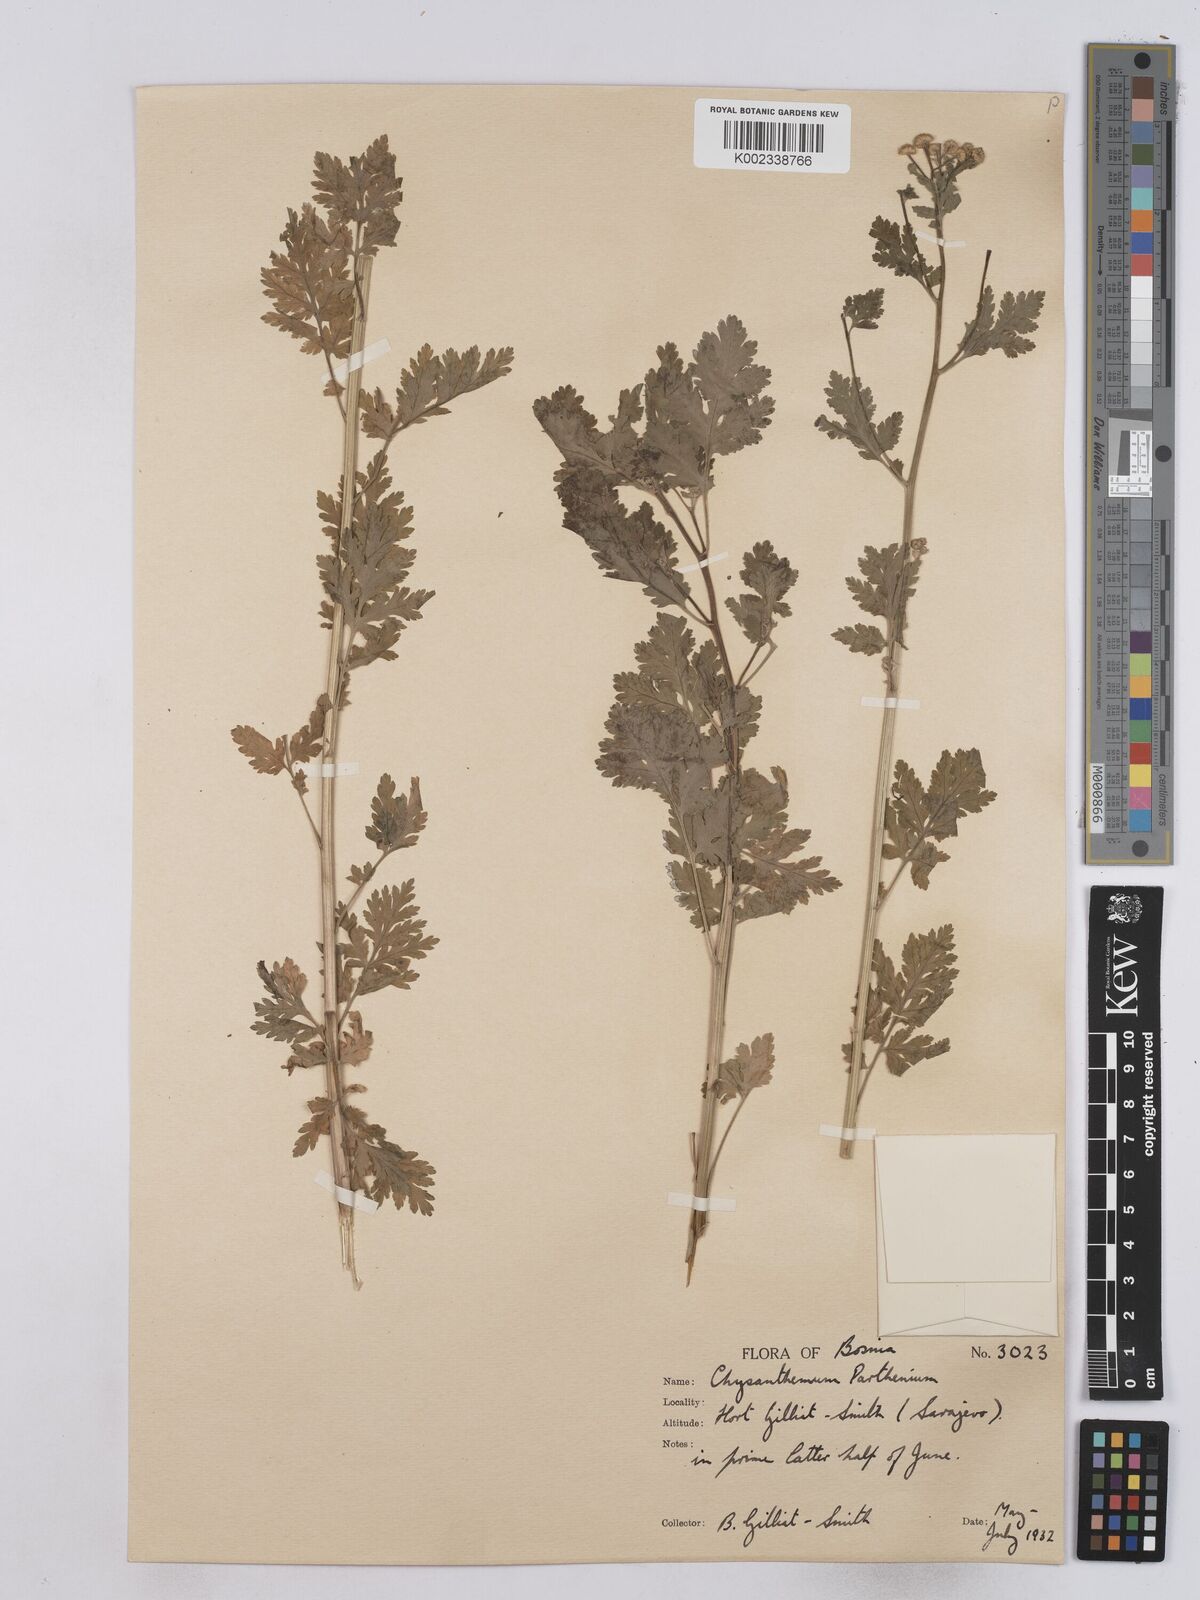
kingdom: Plantae
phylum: Tracheophyta
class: Magnoliopsida
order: Asterales
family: Asteraceae
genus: Tanacetum
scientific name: Tanacetum parthenium
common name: Feverfew
